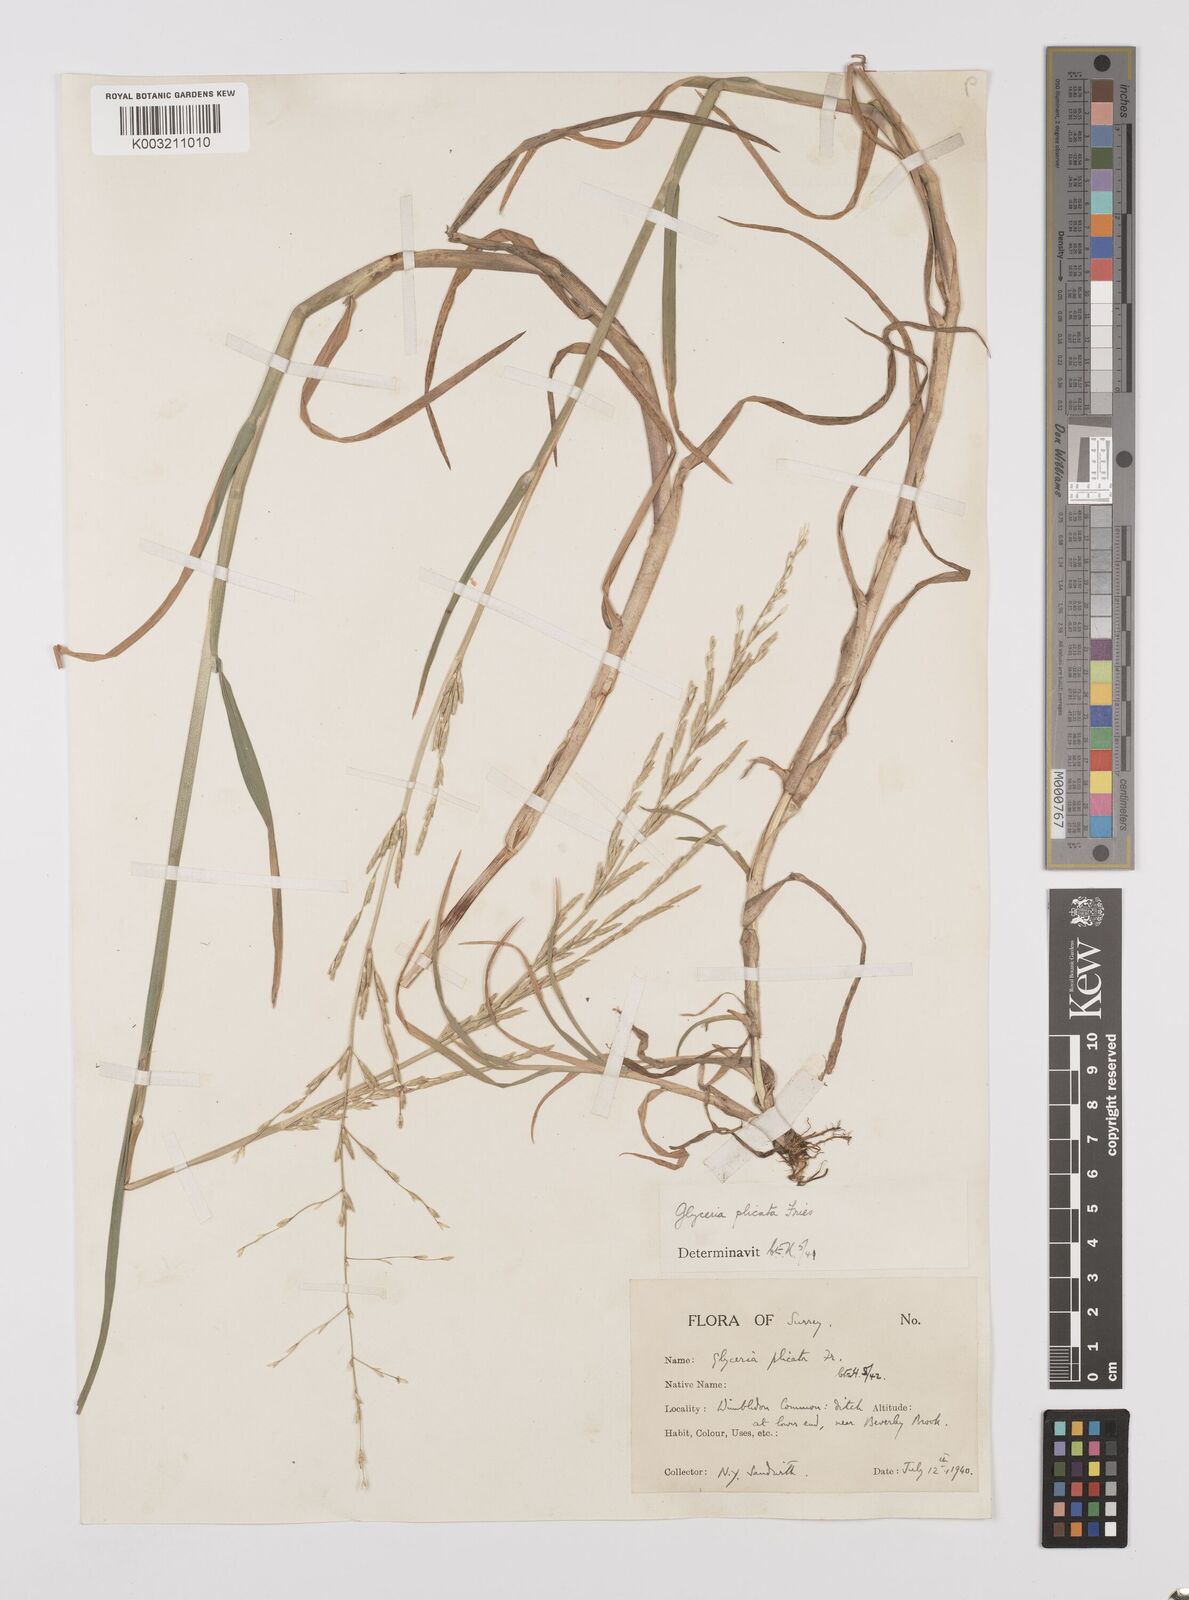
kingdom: Plantae
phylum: Tracheophyta
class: Liliopsida
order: Poales
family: Poaceae
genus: Glyceria
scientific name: Glyceria notata
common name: Plicate sweet-grass
